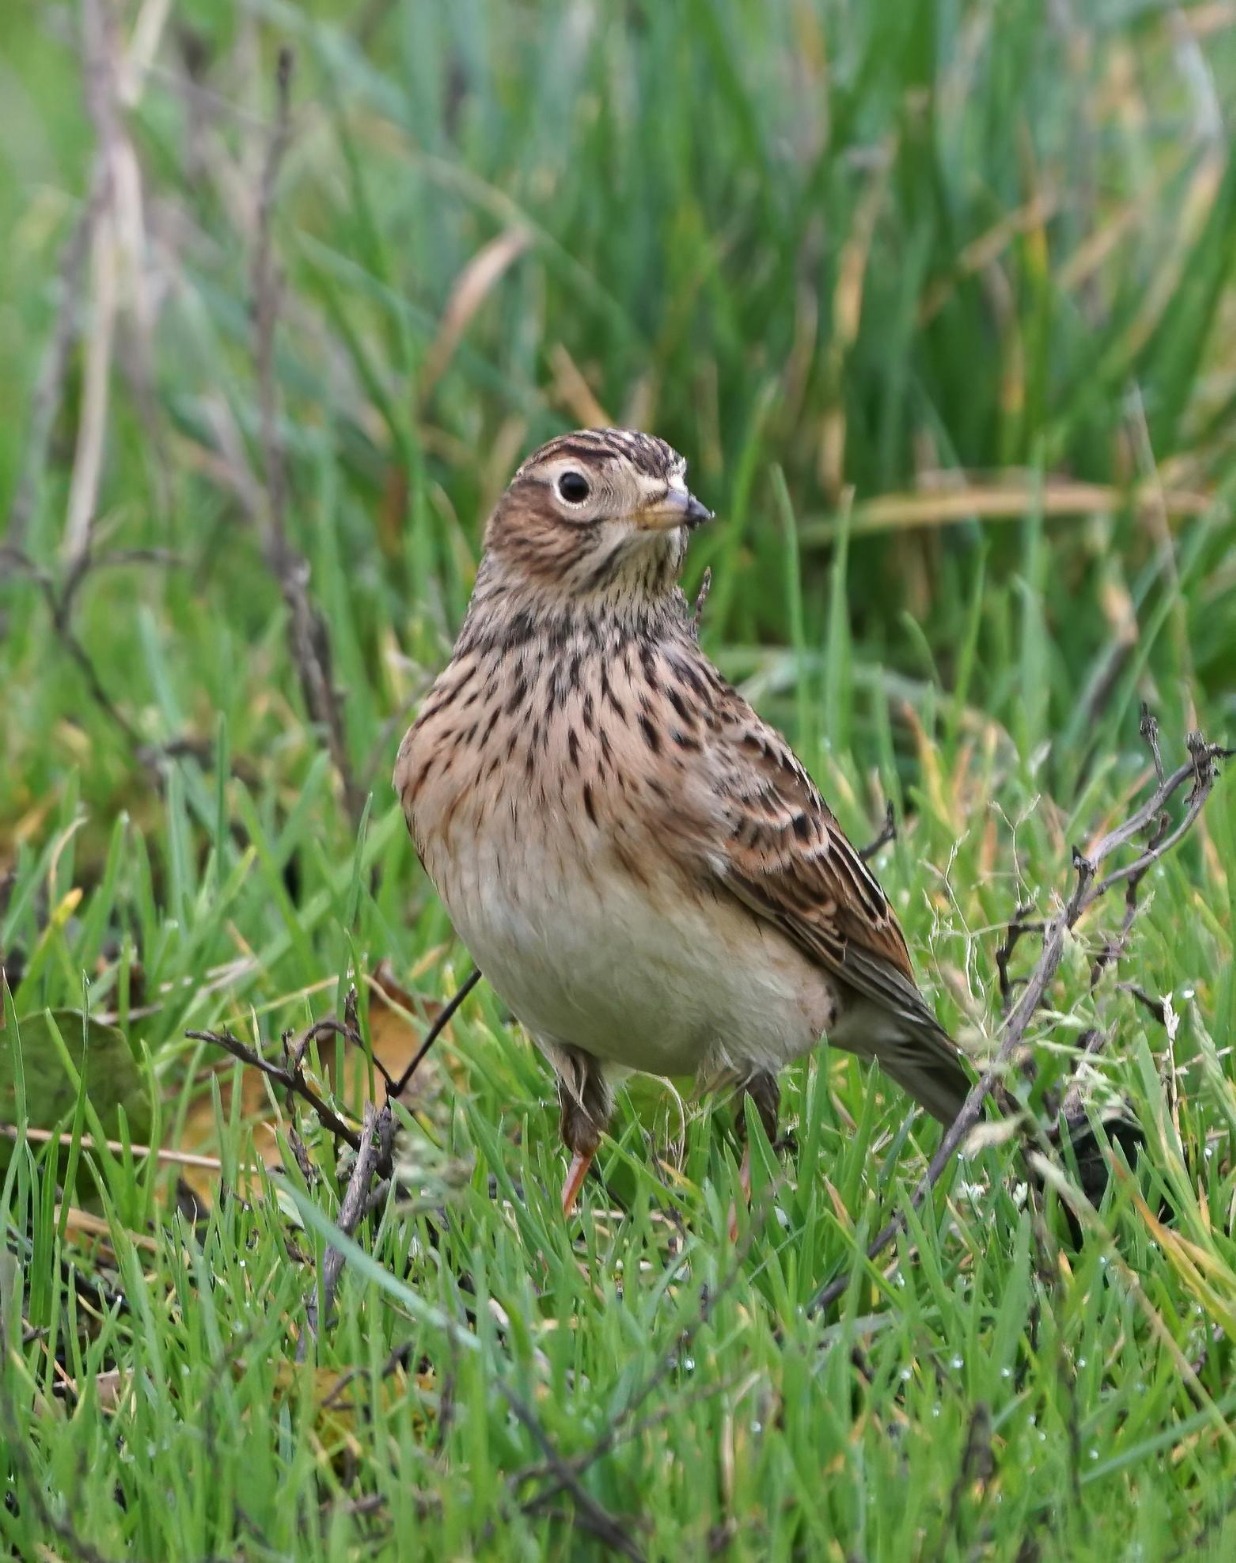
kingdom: Animalia
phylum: Chordata
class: Aves
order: Passeriformes
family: Alaudidae
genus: Alauda
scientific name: Alauda arvensis
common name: Sanglærke
